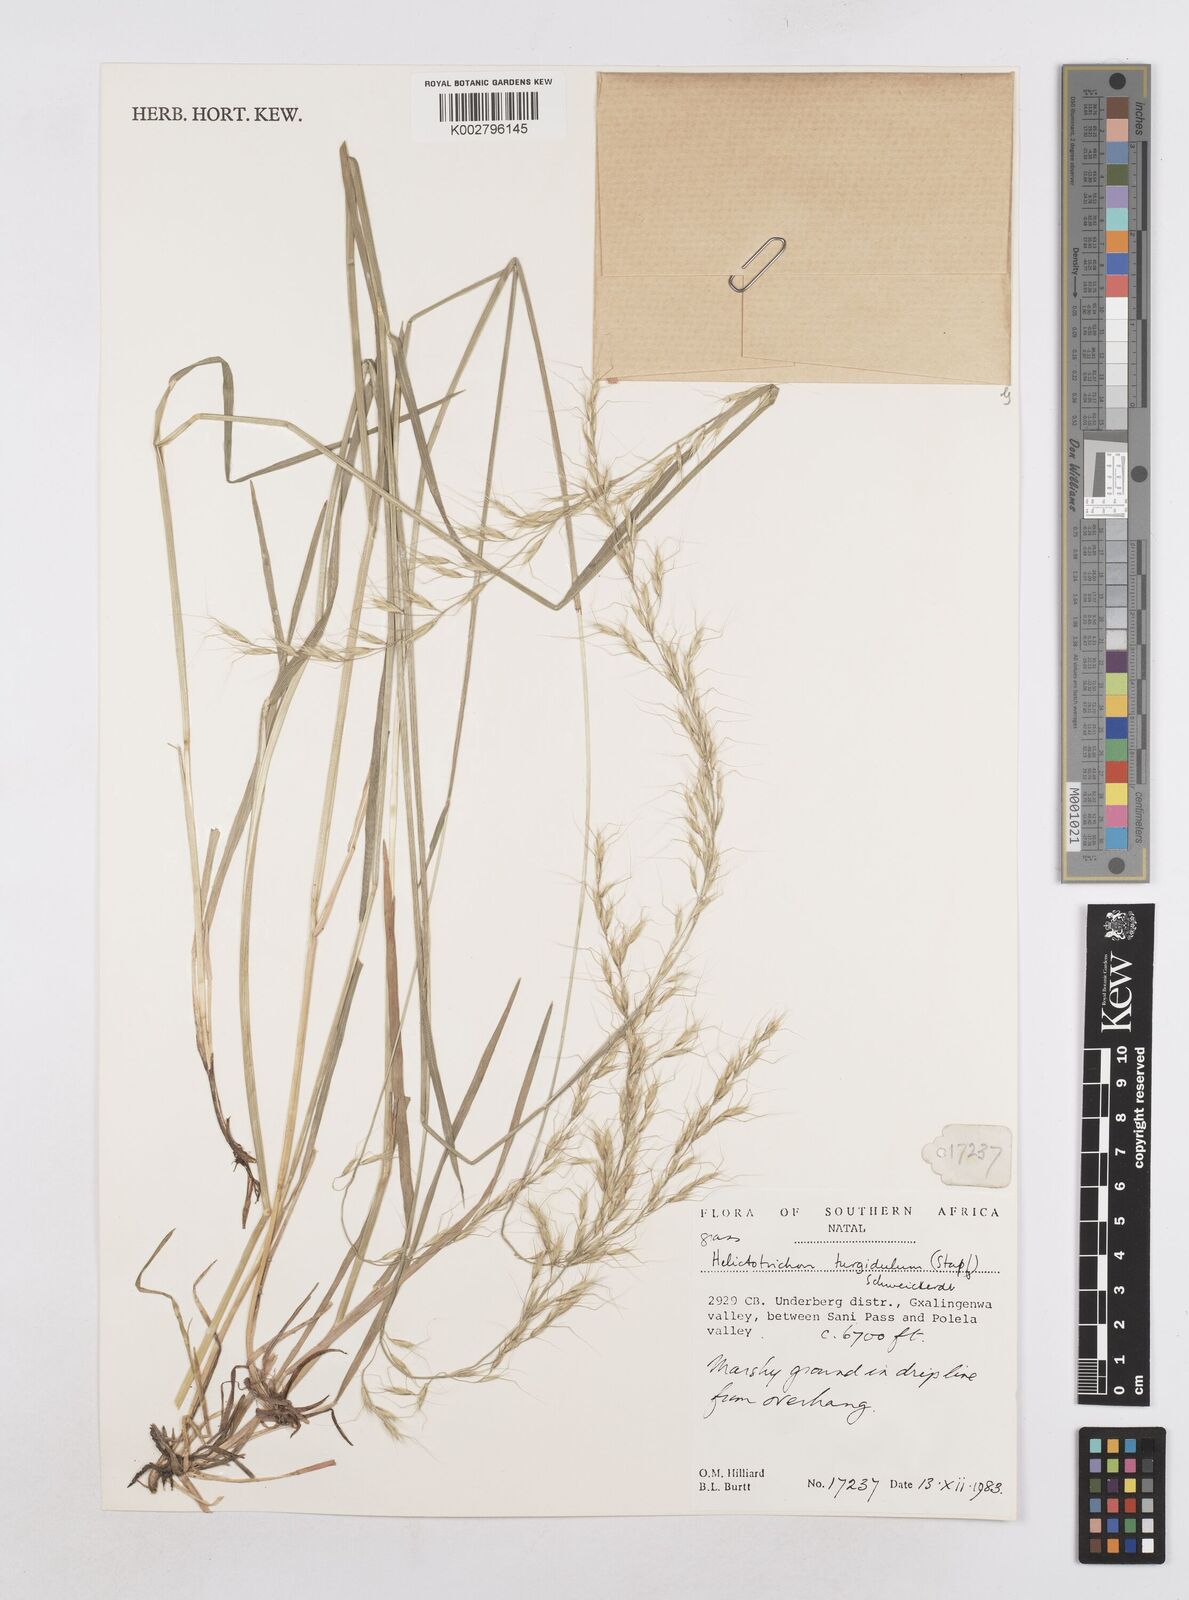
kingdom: Plantae
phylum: Tracheophyta
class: Liliopsida
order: Poales
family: Poaceae
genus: Trisetopsis
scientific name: Trisetopsis imberbis
